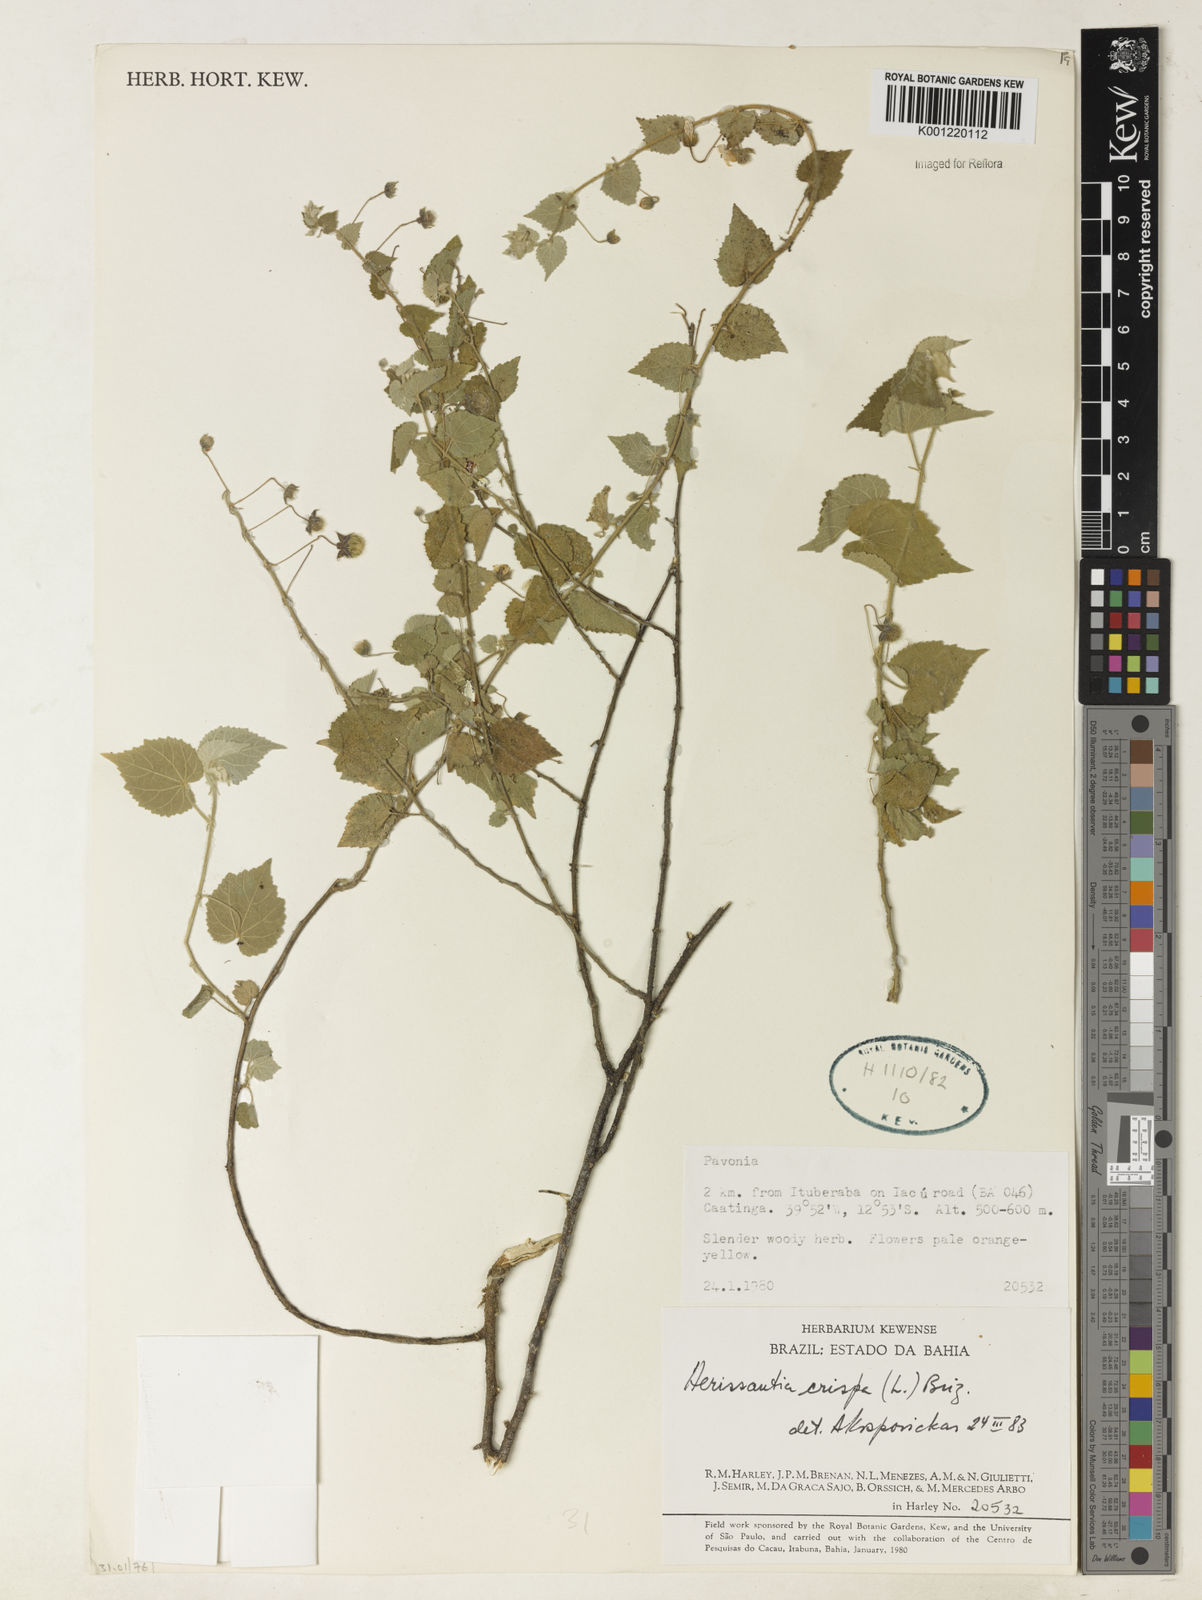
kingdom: Plantae
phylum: Tracheophyta
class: Magnoliopsida
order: Malvales
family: Malvaceae
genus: Herissantia
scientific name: Herissantia crispa
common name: Bladdermallow
